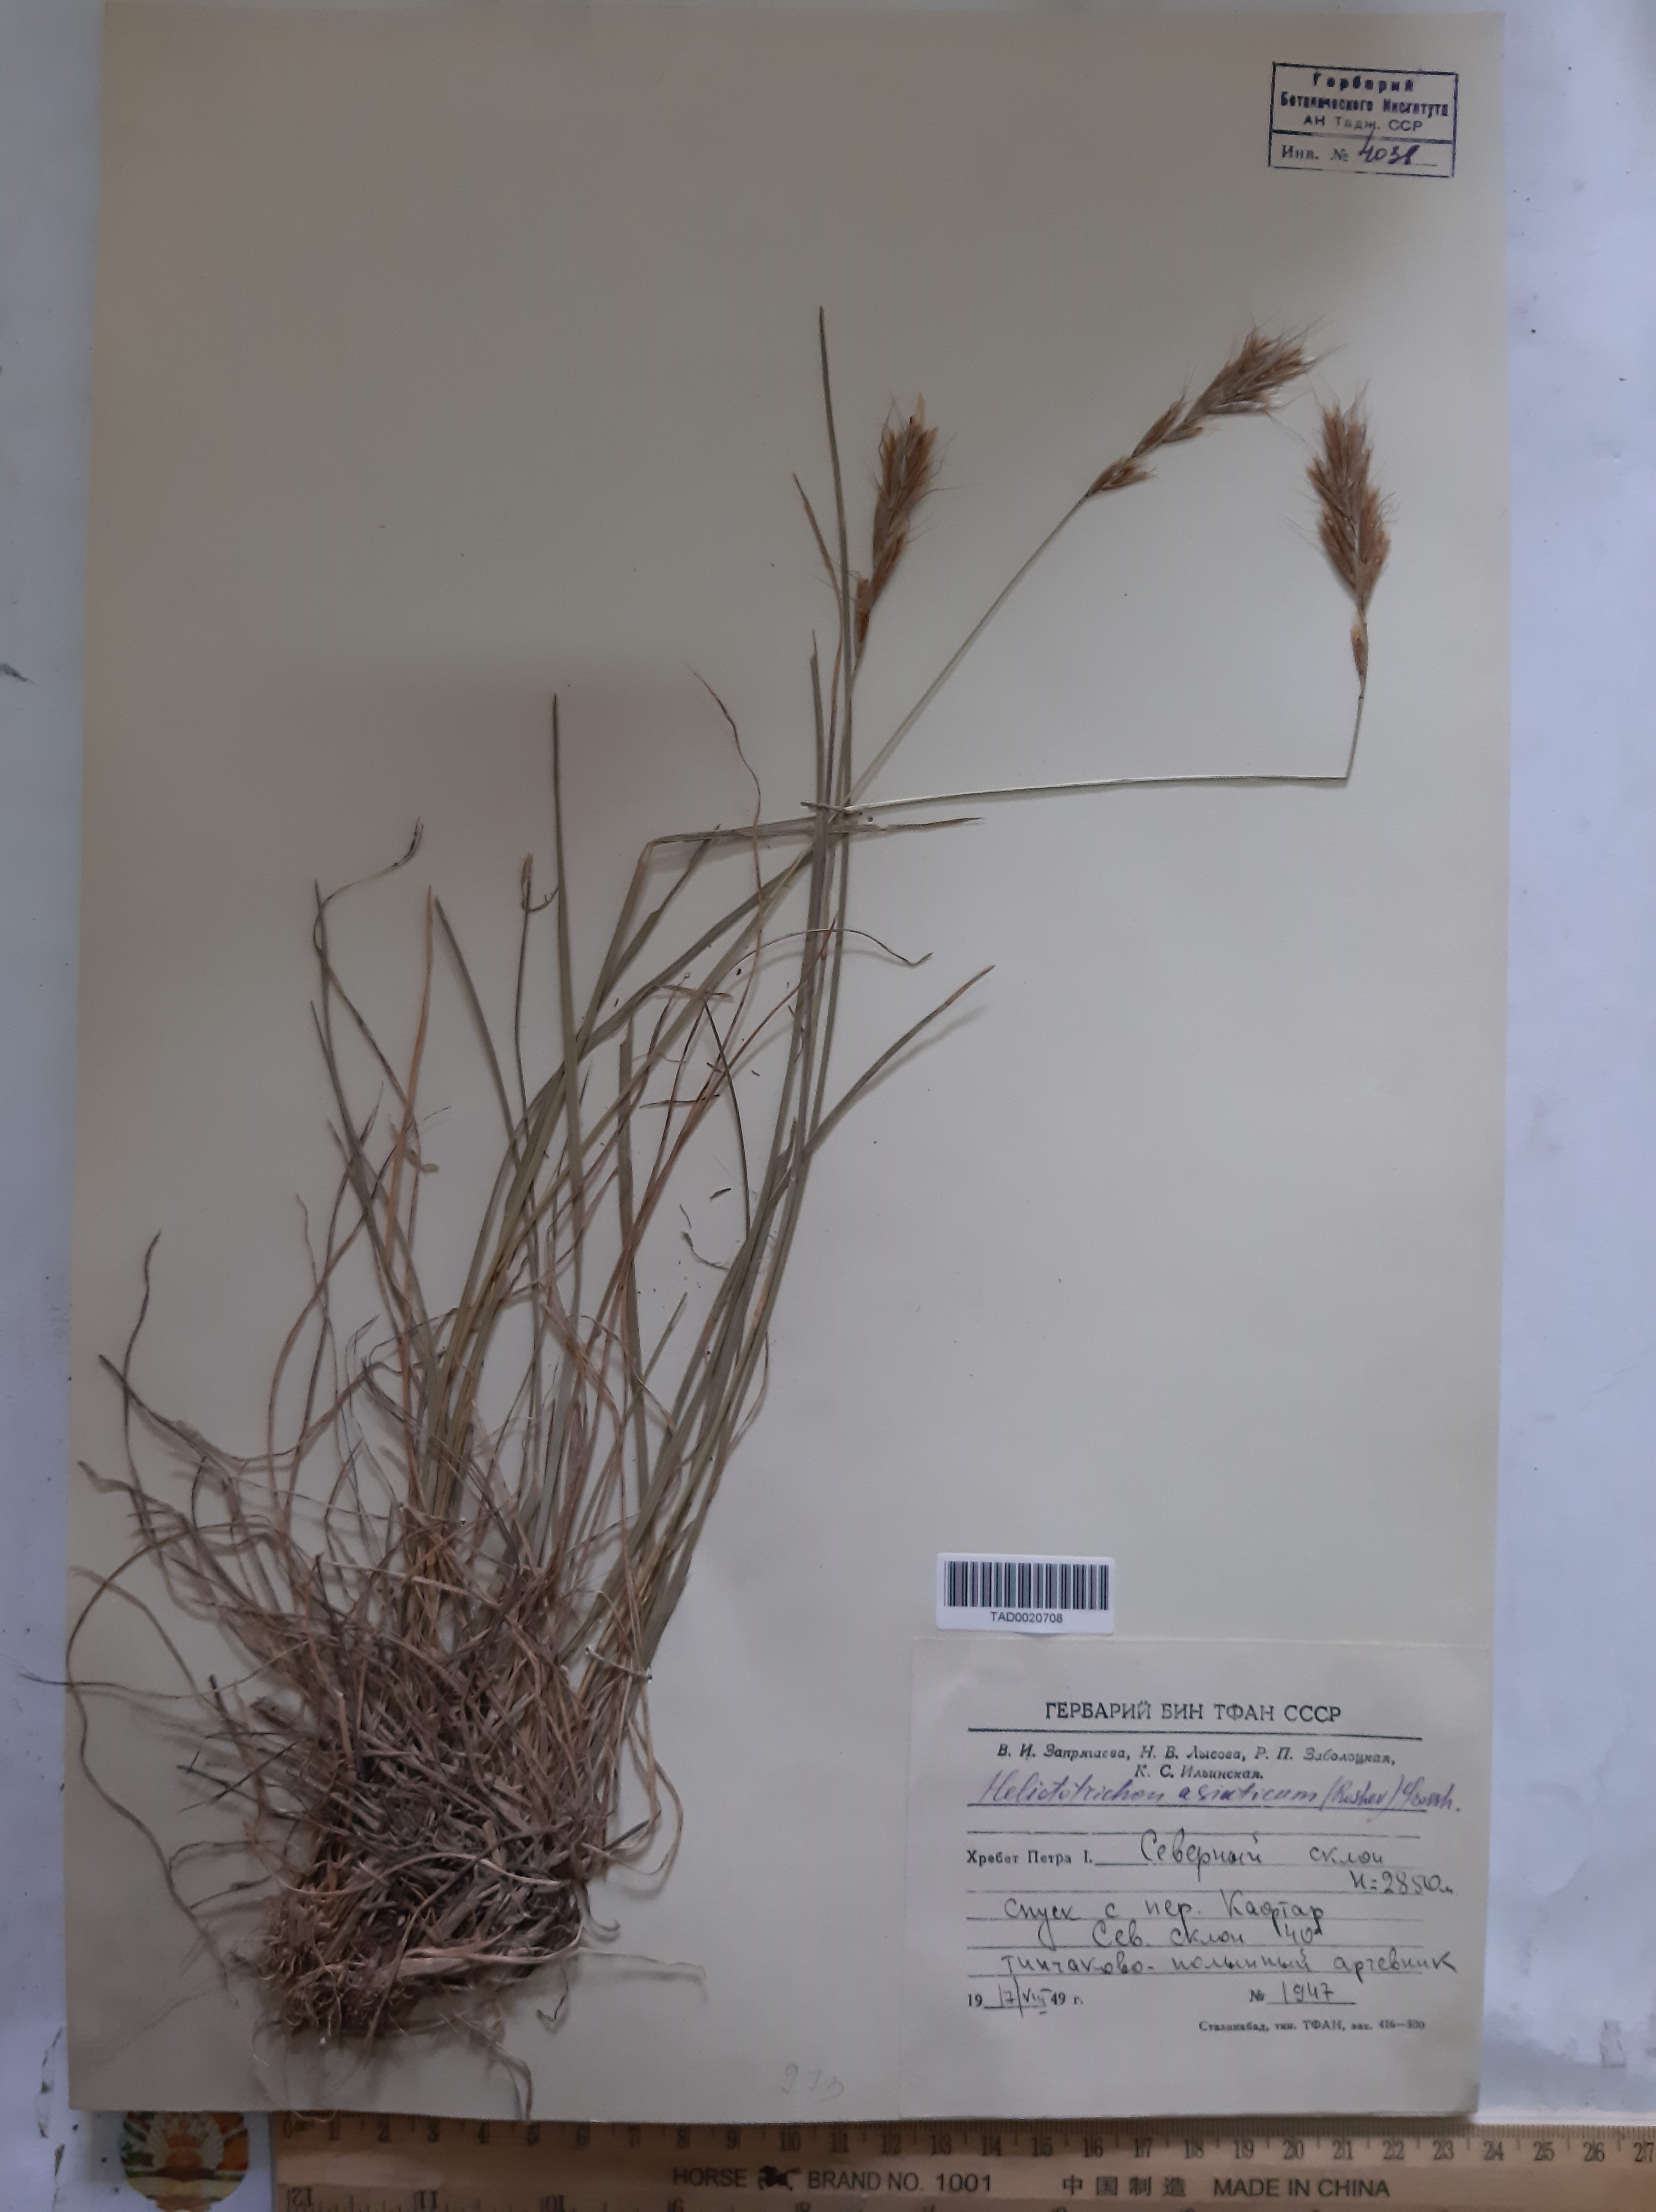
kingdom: Plantae
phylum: Tracheophyta
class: Liliopsida
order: Poales
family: Poaceae
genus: Helictochloa
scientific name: Helictochloa hookeri
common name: Hooker's alpine oatgrass
